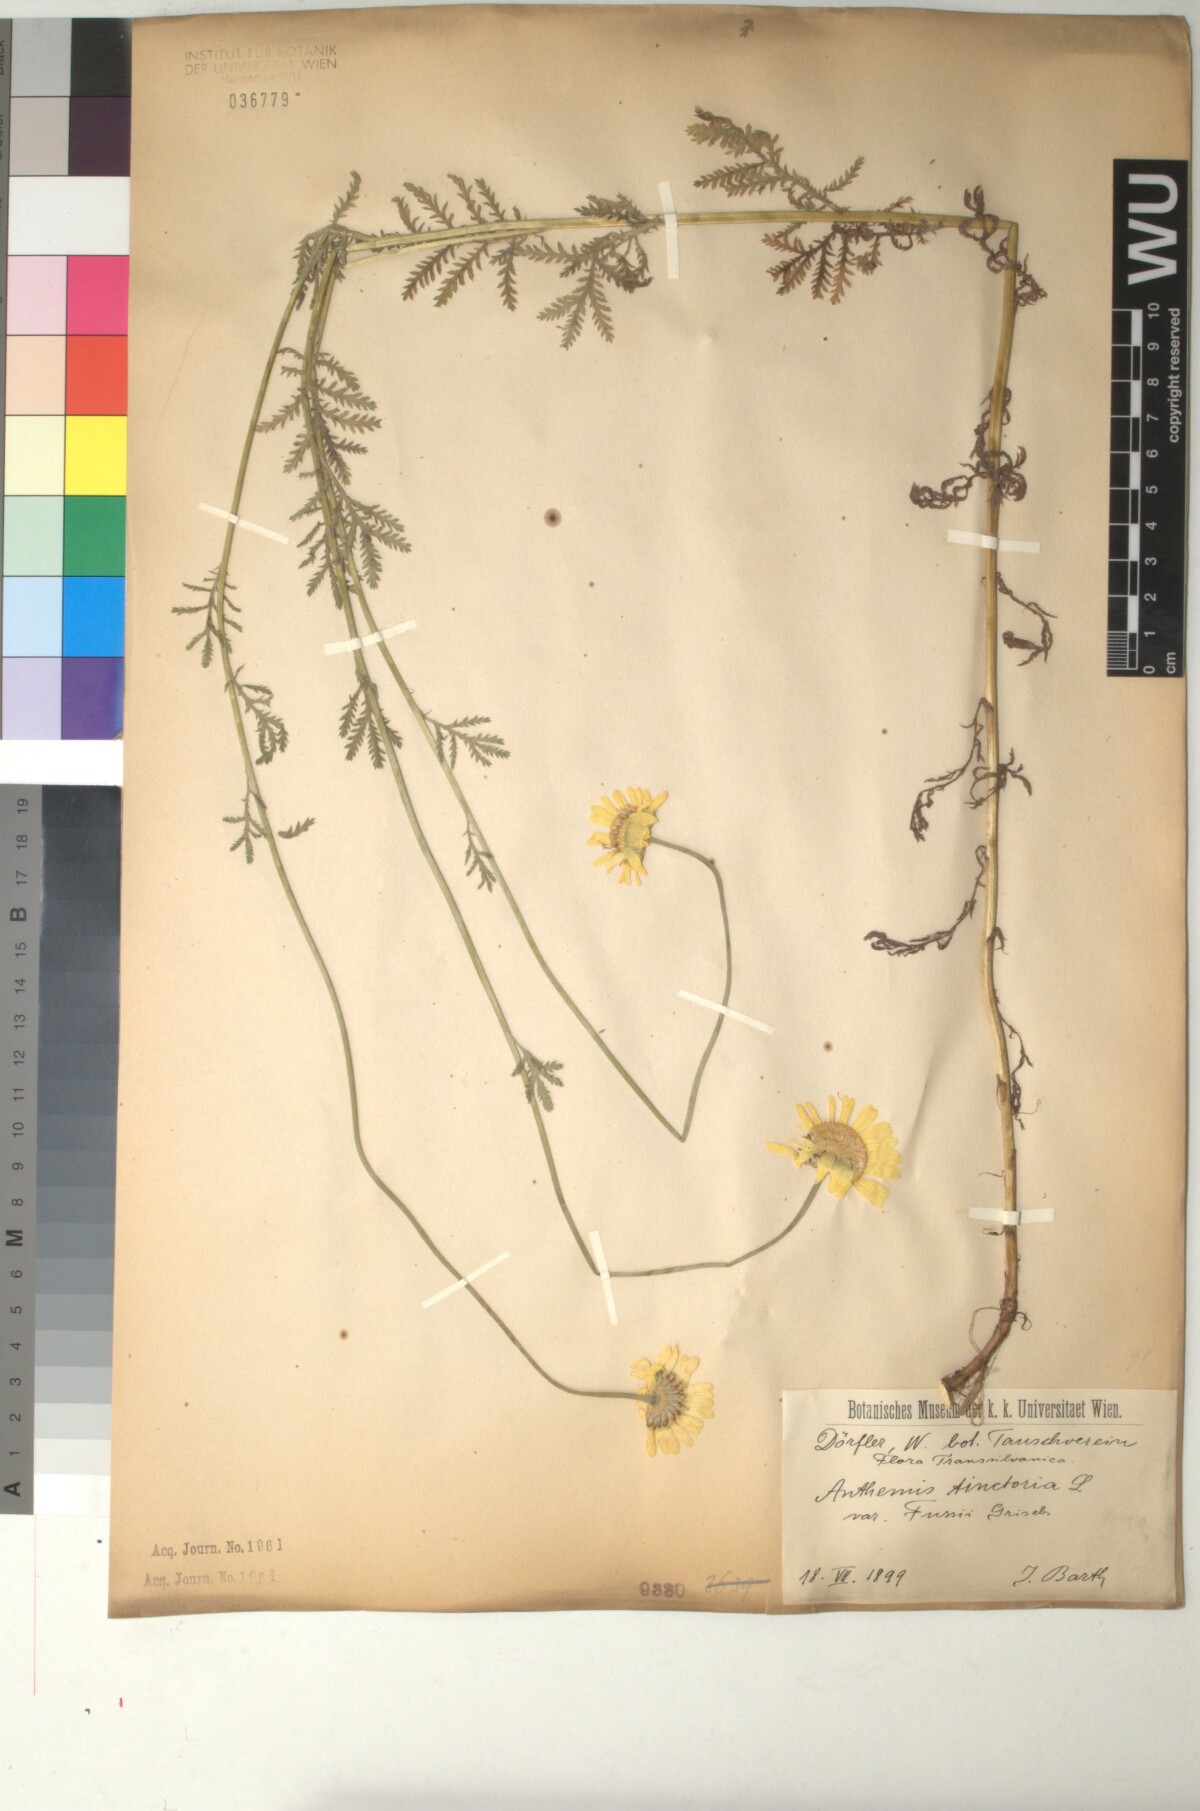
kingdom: Plantae
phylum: Tracheophyta
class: Magnoliopsida
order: Asterales
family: Asteraceae
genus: Cota
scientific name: Cota tinctoria
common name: Golden chamomile
